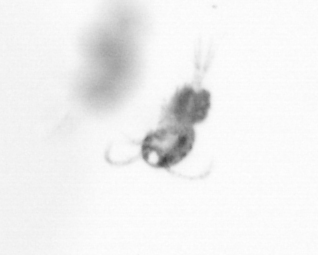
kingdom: Animalia
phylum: Arthropoda
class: Copepoda
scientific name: Copepoda
